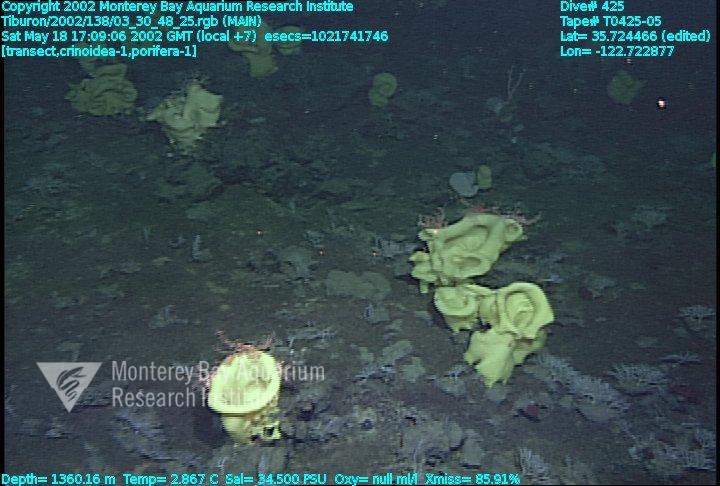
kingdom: Animalia
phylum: Porifera
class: Hexactinellida
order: Lyssacinosida
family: Rossellidae
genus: Staurocalyptus
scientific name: Staurocalyptus
